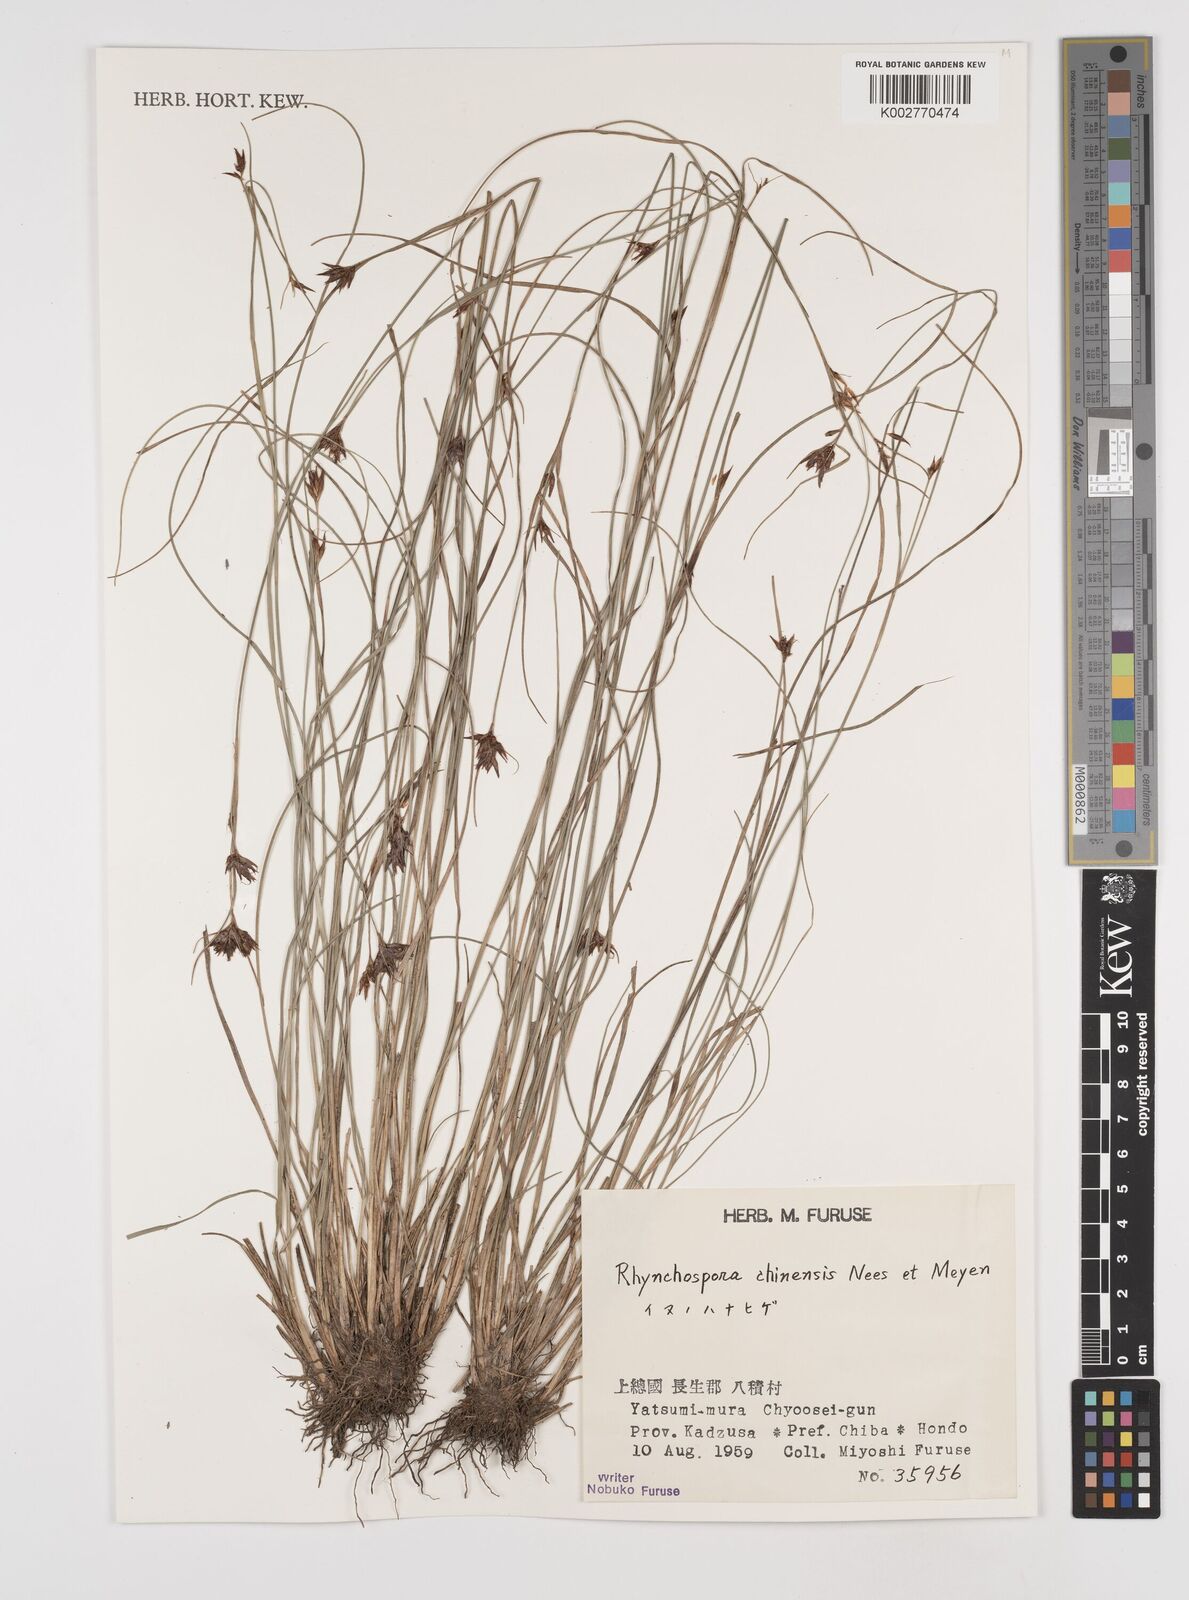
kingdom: Plantae
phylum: Tracheophyta
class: Liliopsida
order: Poales
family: Cyperaceae
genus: Rhynchospora
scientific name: Rhynchospora chinensis
